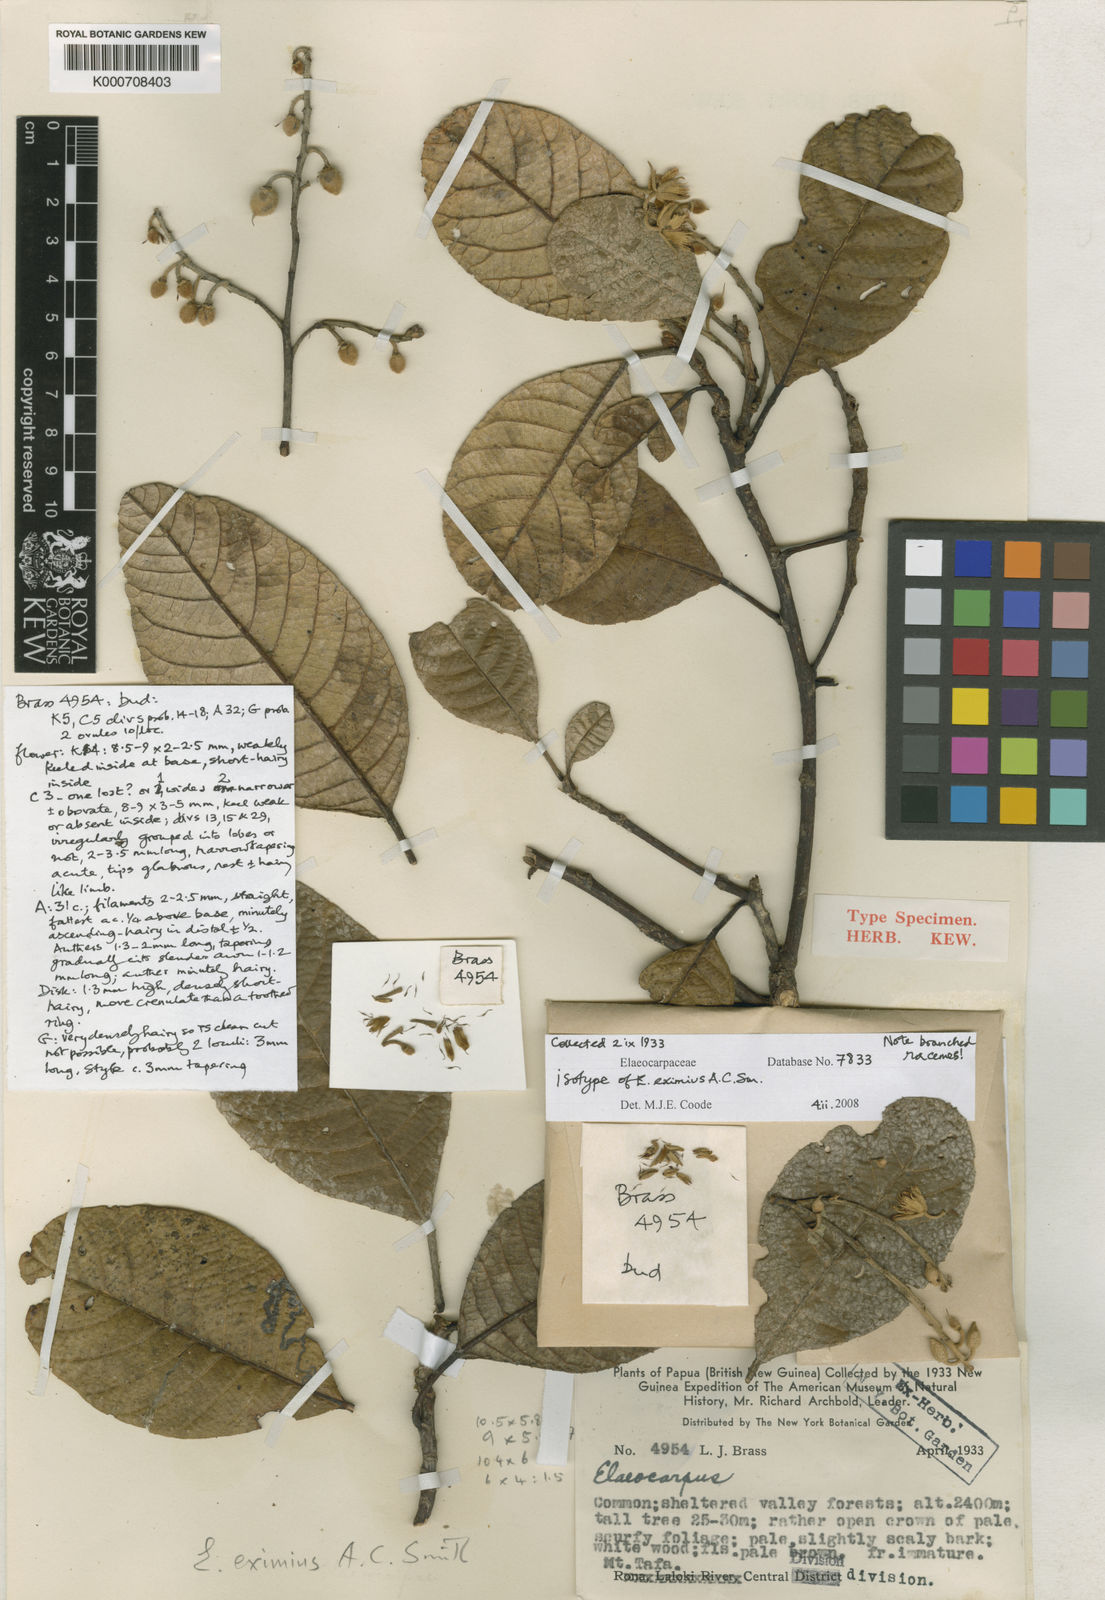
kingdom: Plantae
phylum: Tracheophyta
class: Magnoliopsida
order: Oxalidales
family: Elaeocarpaceae
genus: Elaeocarpus
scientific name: Elaeocarpus trichophyllus
